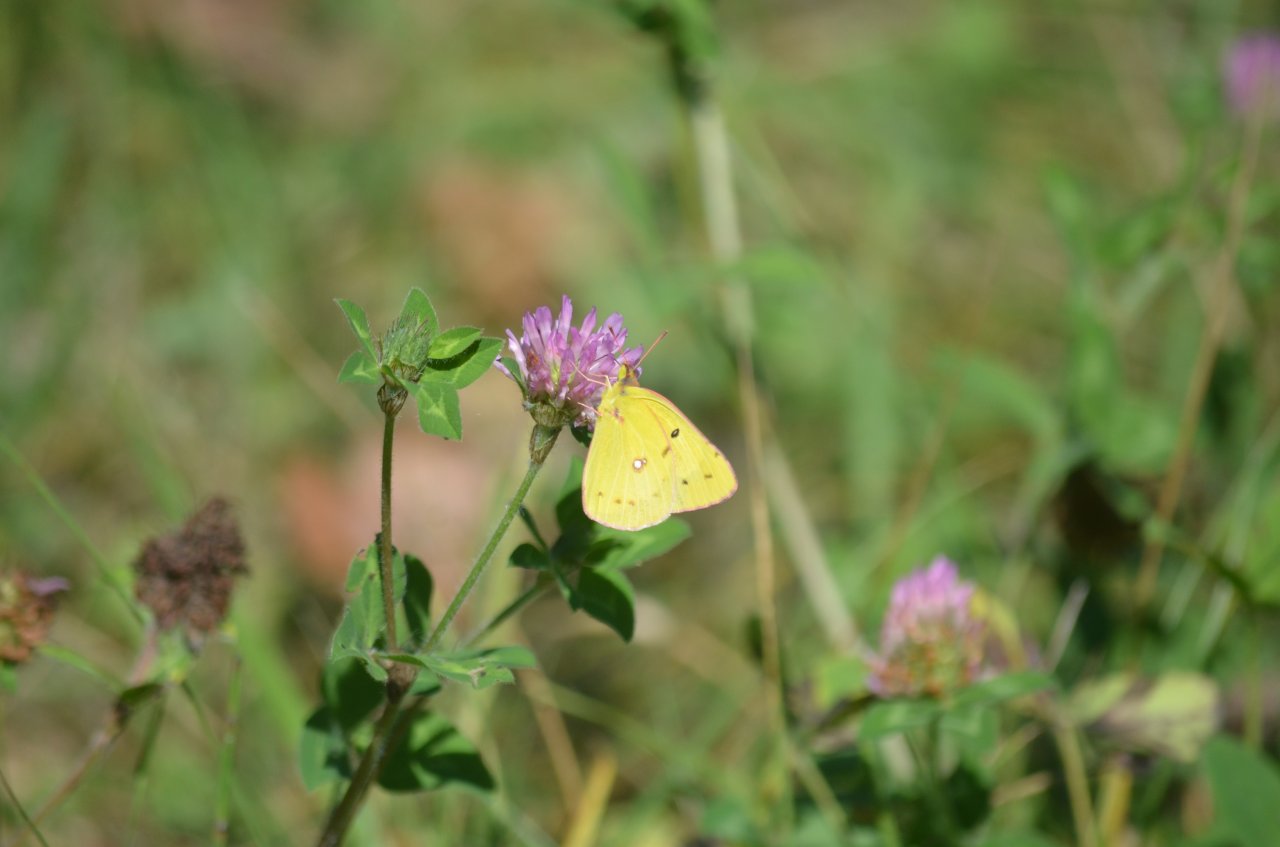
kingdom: Animalia
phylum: Arthropoda
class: Insecta
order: Lepidoptera
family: Pieridae
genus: Colias
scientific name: Colias eurytheme
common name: Orange Sulphur
